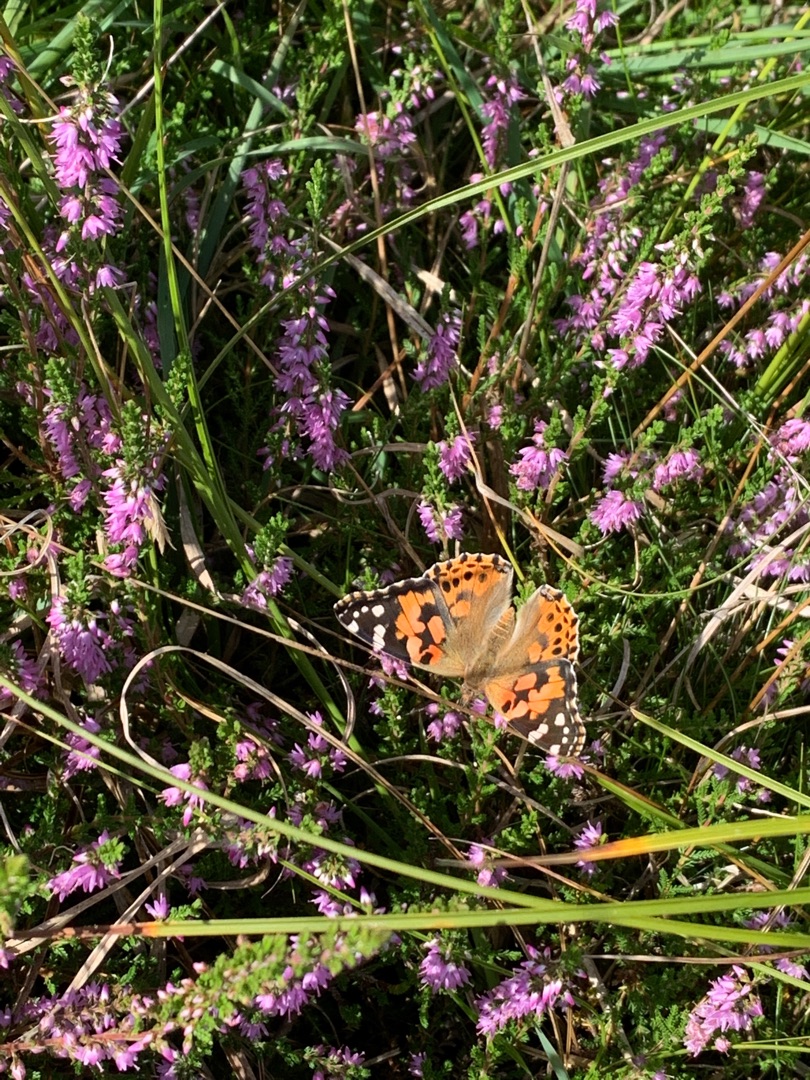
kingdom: Animalia
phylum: Arthropoda
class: Insecta
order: Lepidoptera
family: Nymphalidae
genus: Vanessa
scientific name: Vanessa cardui
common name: Tidselsommerfugl
